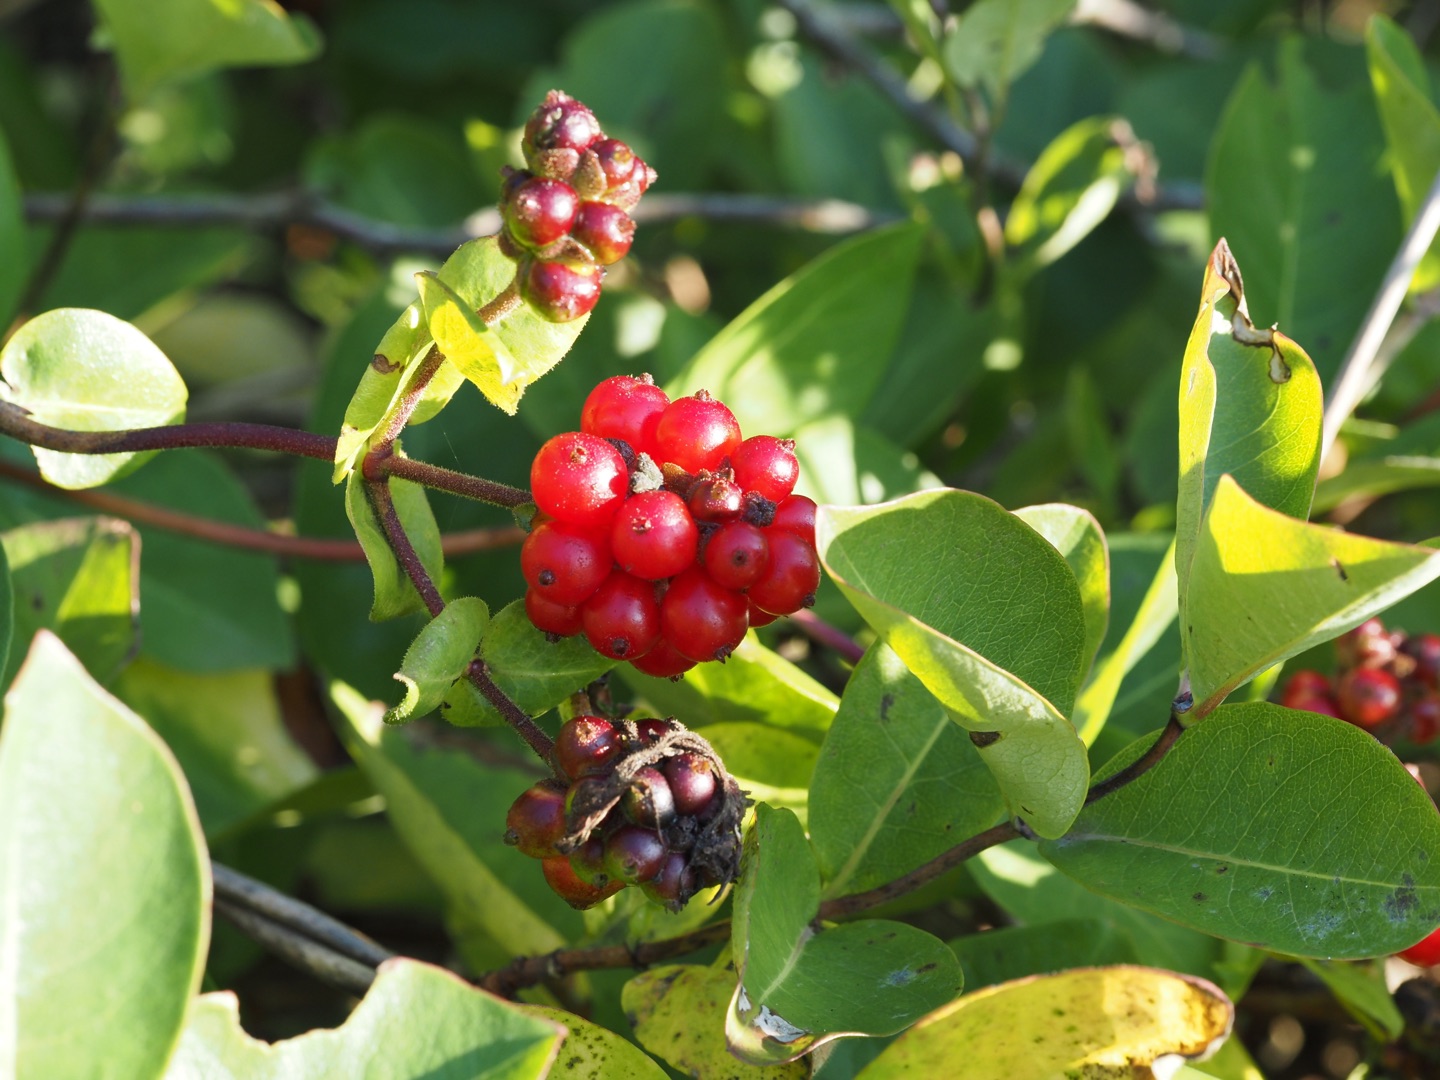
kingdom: Plantae
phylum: Tracheophyta
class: Magnoliopsida
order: Dipsacales
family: Caprifoliaceae
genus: Lonicera
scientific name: Lonicera caprifolium
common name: Ægte kaprifolie
